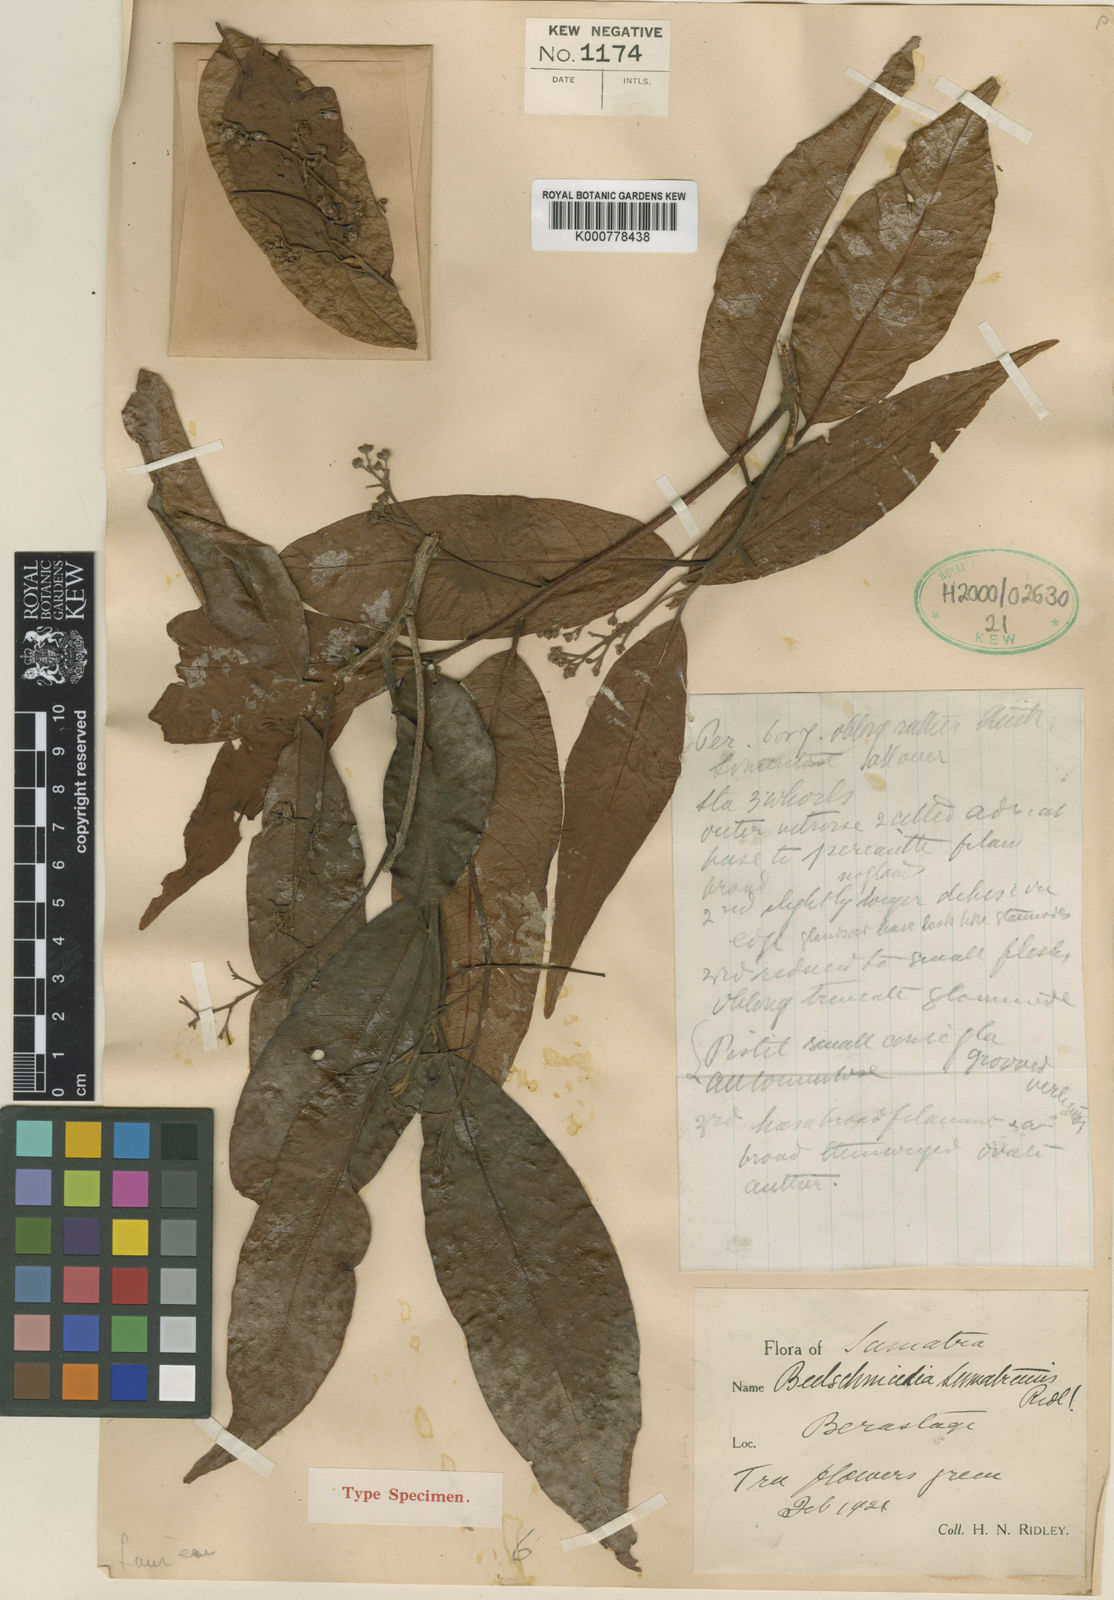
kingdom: Plantae
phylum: Tracheophyta
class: Magnoliopsida
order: Laurales
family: Lauraceae
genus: Beilschmiedia
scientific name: Beilschmiedia palembanica
